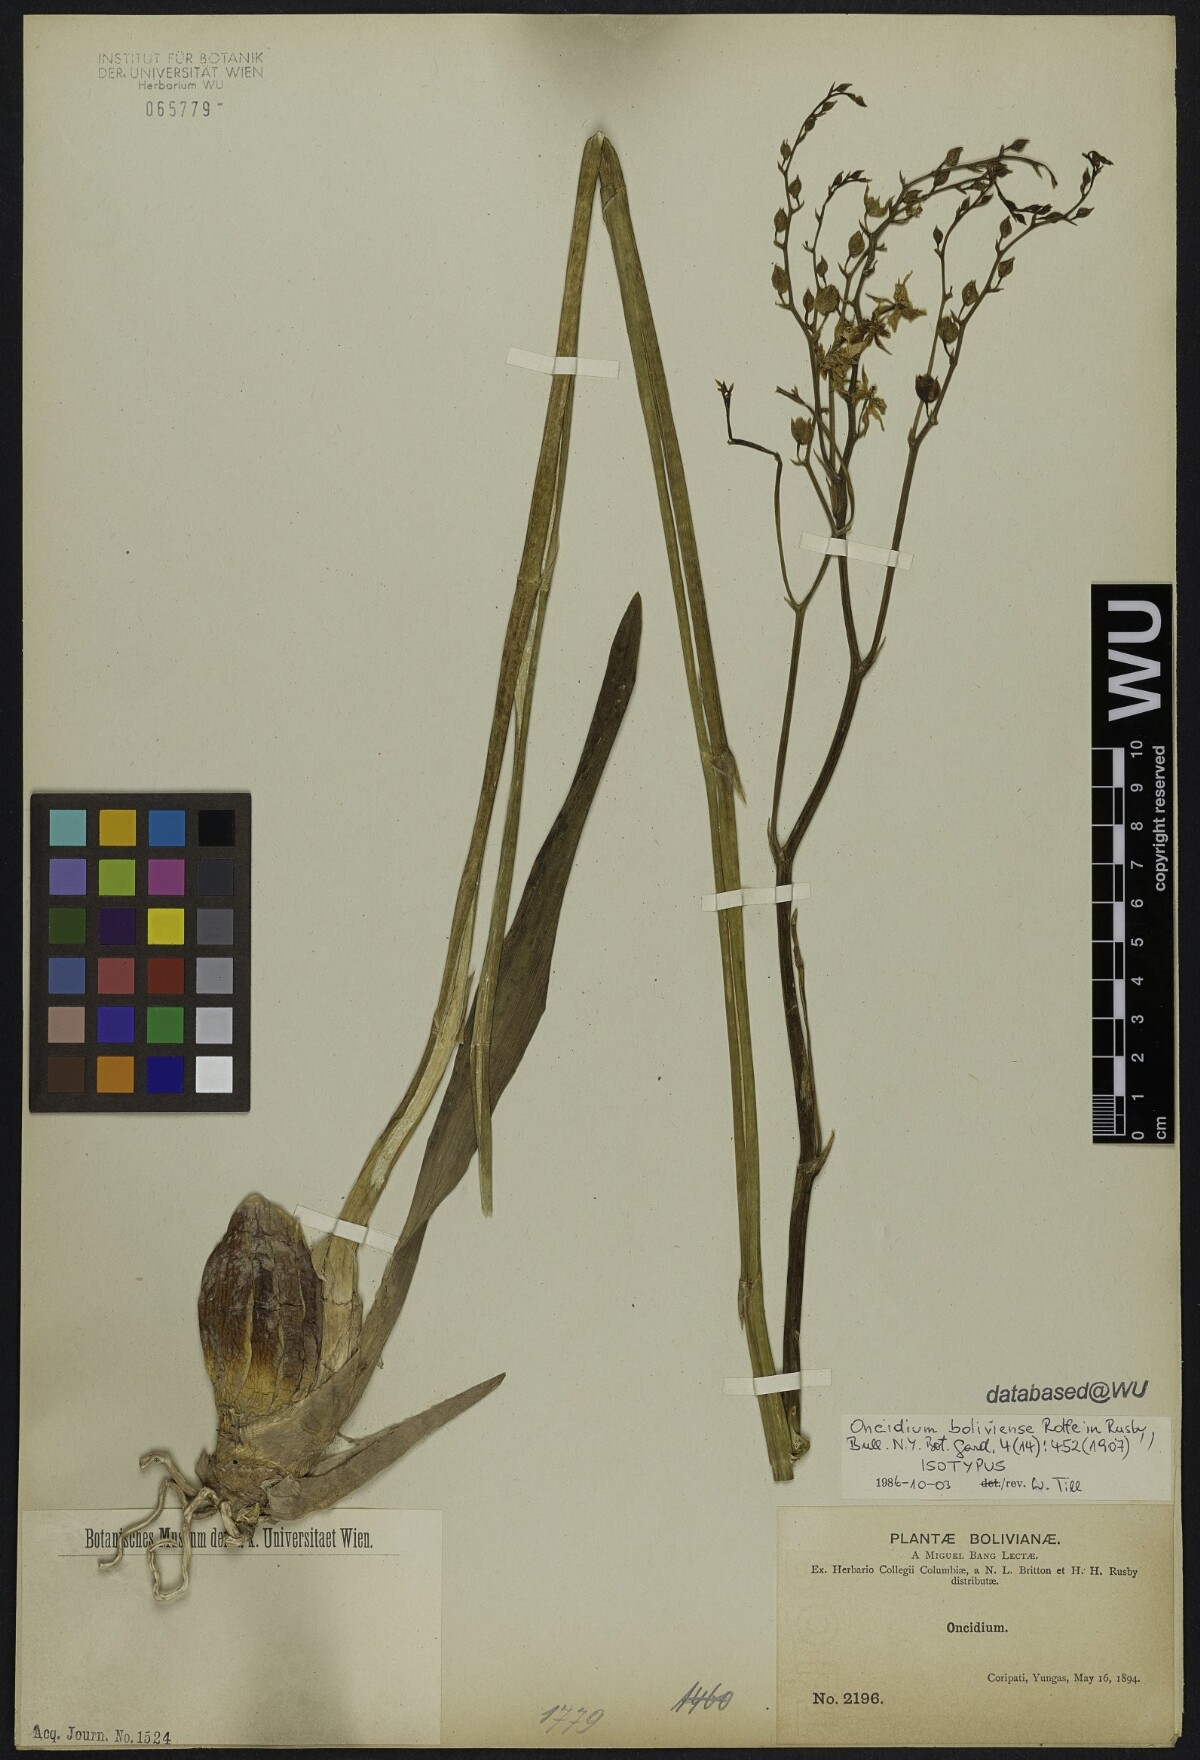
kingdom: Plantae
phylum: Tracheophyta
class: Liliopsida
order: Asparagales
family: Orchidaceae
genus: Gomesa
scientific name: Gomesa ramosa
